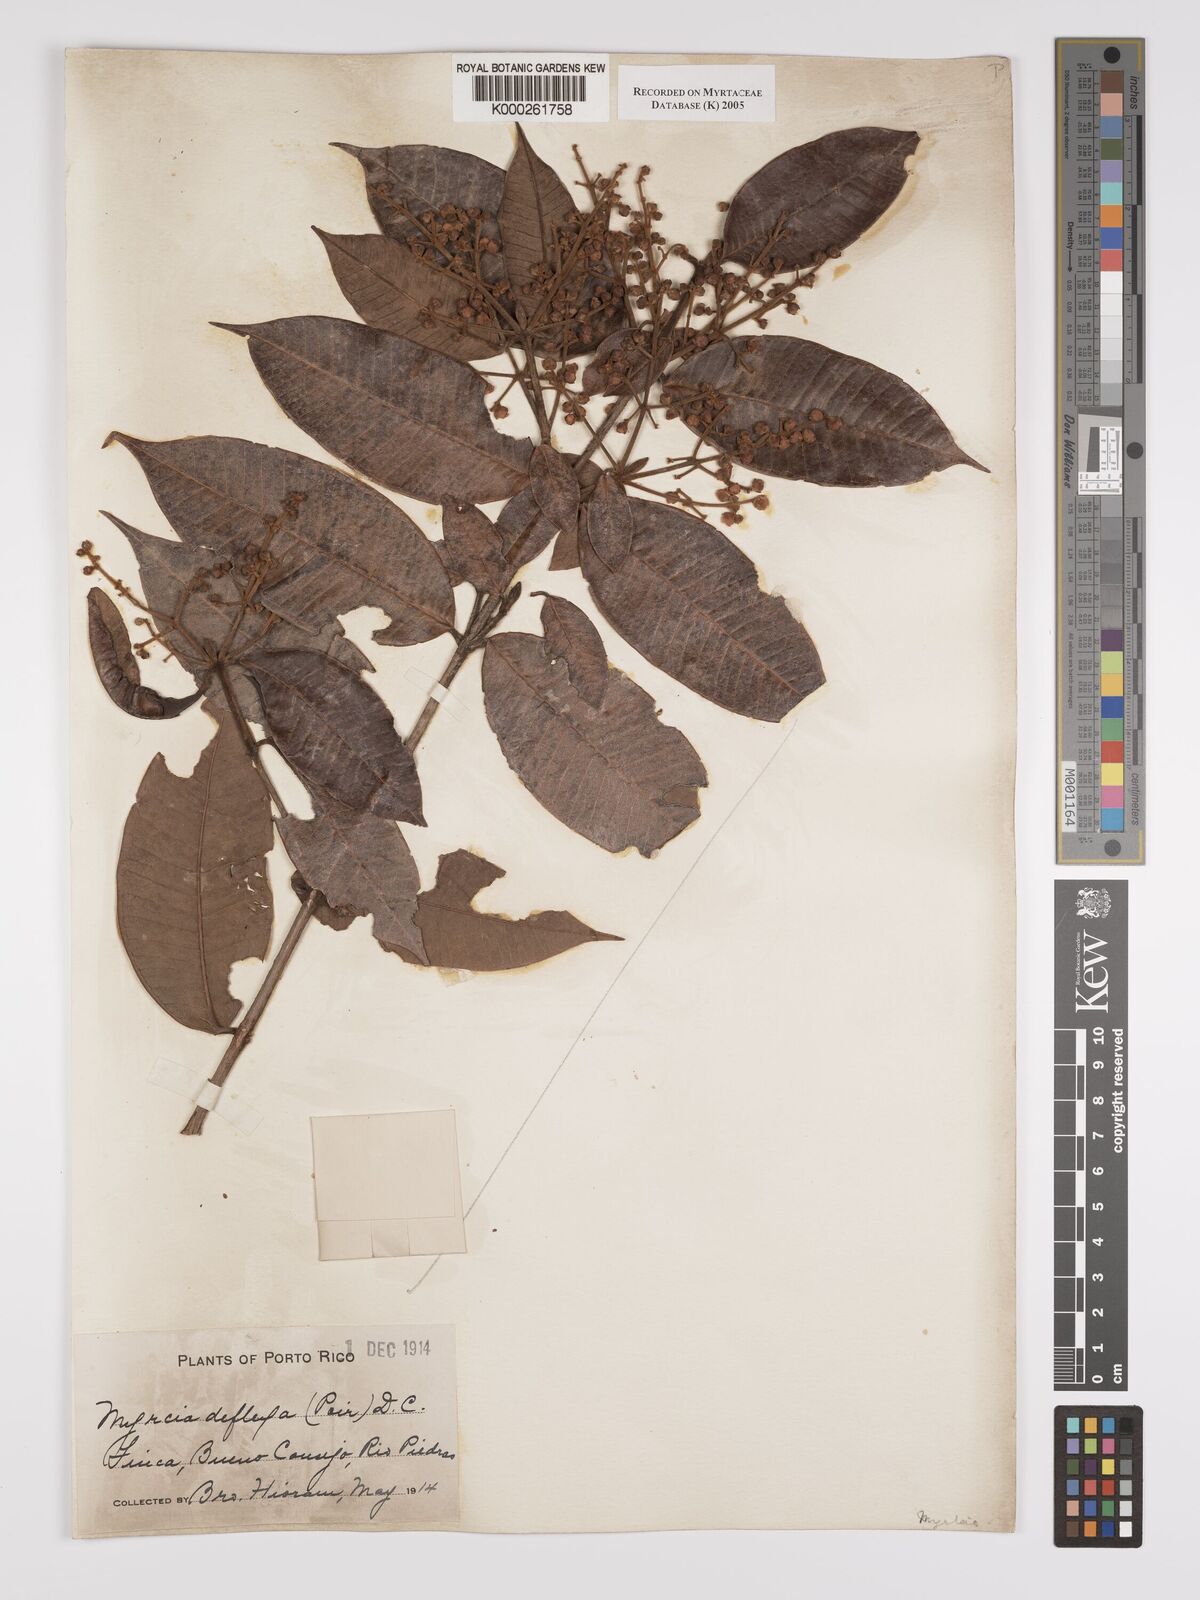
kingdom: Plantae
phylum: Tracheophyta
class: Magnoliopsida
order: Myrtales
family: Myrtaceae
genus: Myrcia
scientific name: Myrcia deflexa
